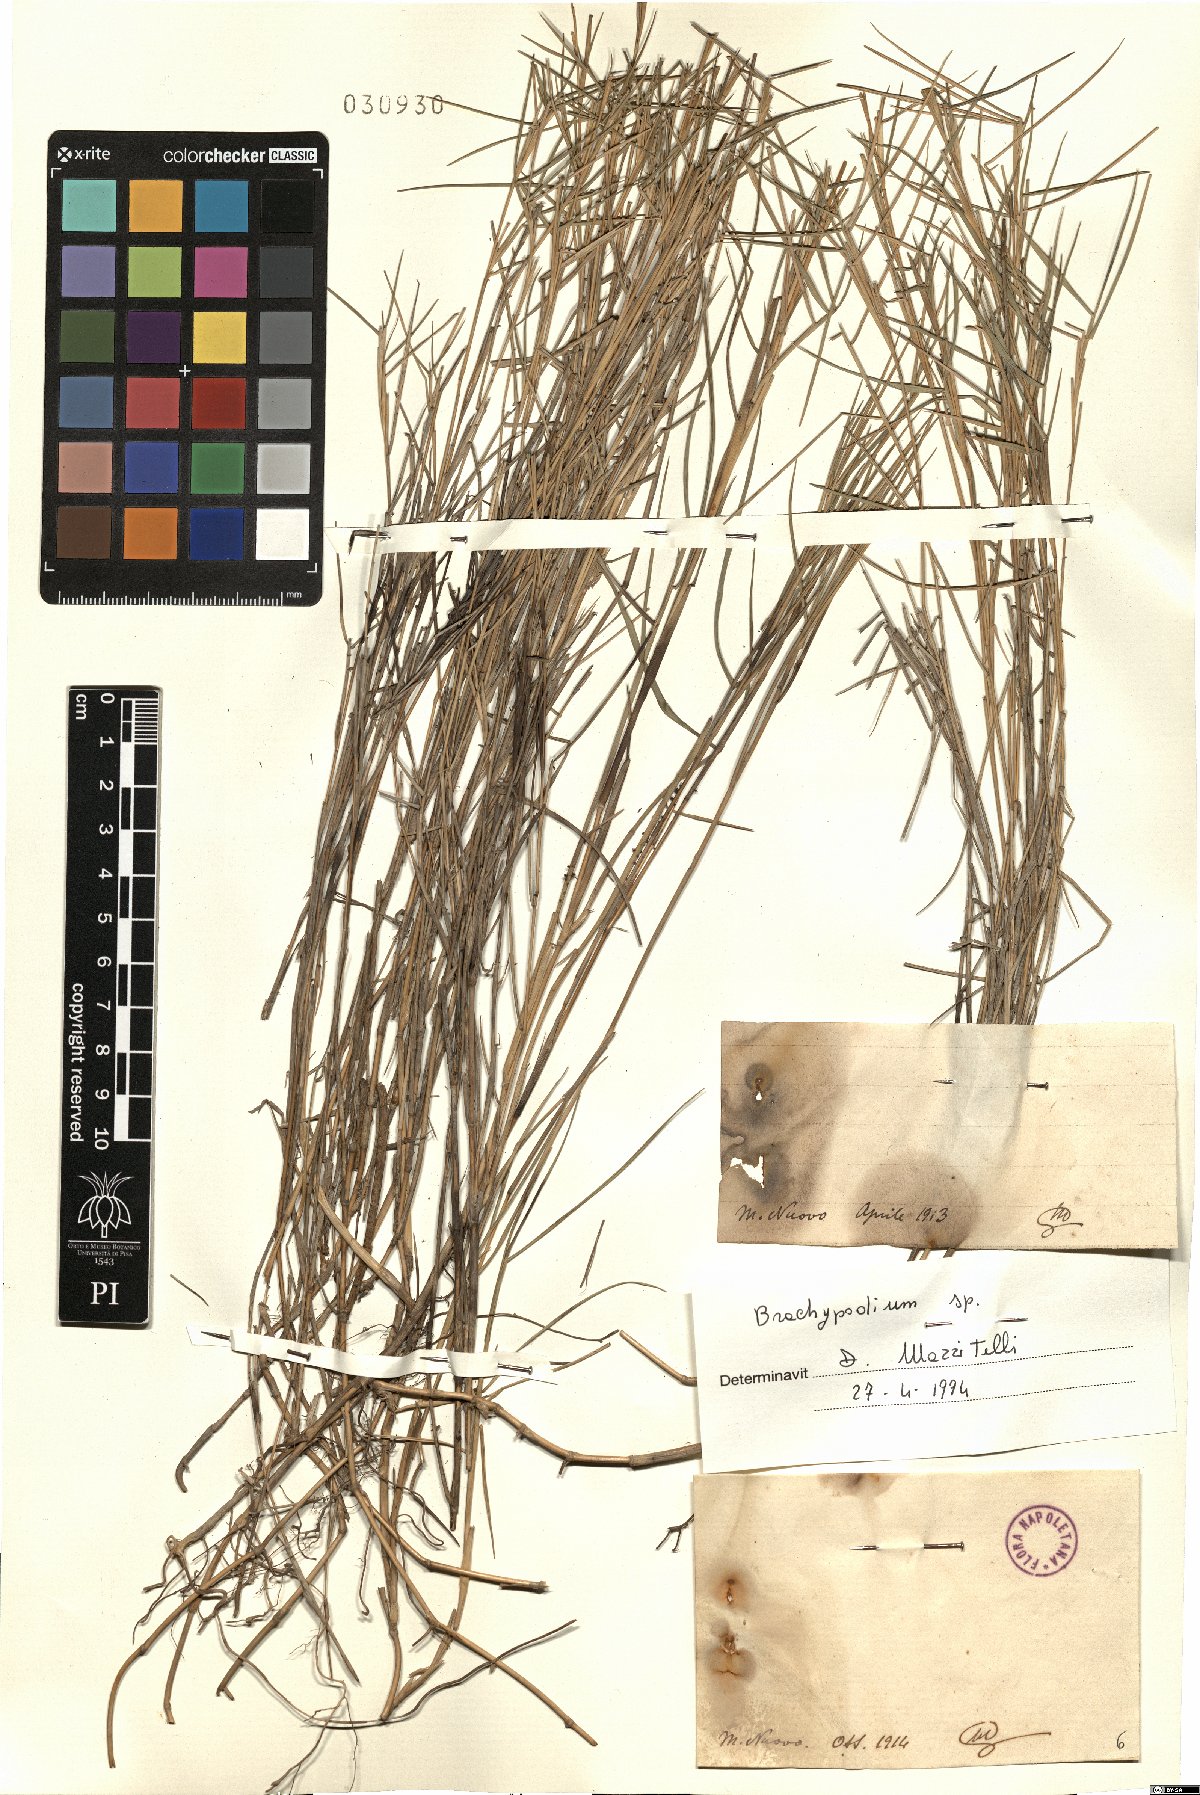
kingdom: Plantae
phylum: Tracheophyta
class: Liliopsida
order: Poales
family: Poaceae
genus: Brachypodium
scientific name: Brachypodium
